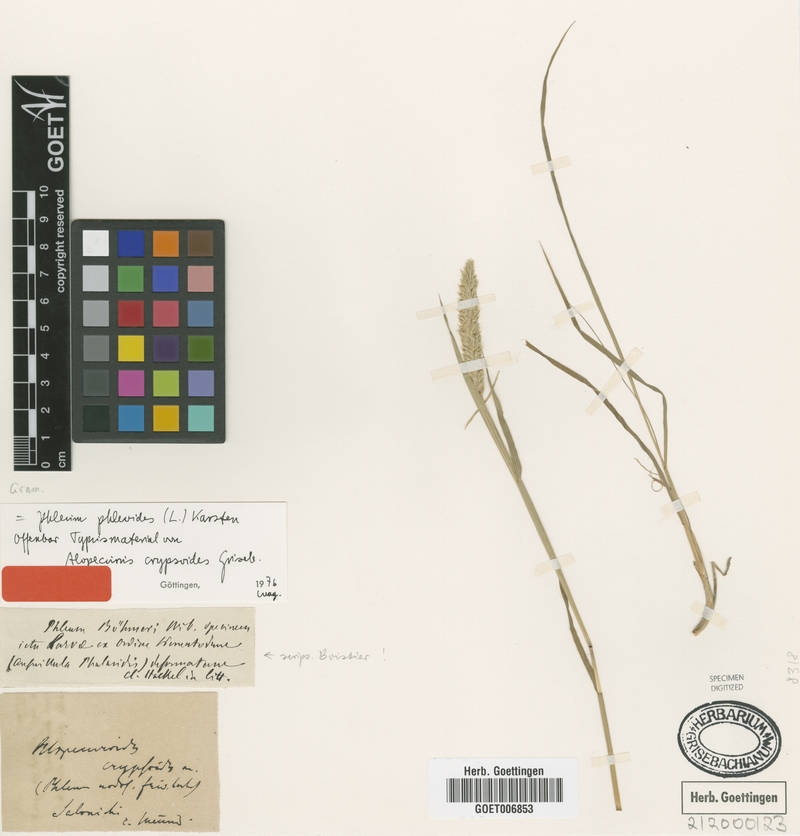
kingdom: Plantae
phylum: Tracheophyta
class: Liliopsida
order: Poales
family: Poaceae
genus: Phleum
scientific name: Phleum phleoides
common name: Purple-stem cat's-tail
